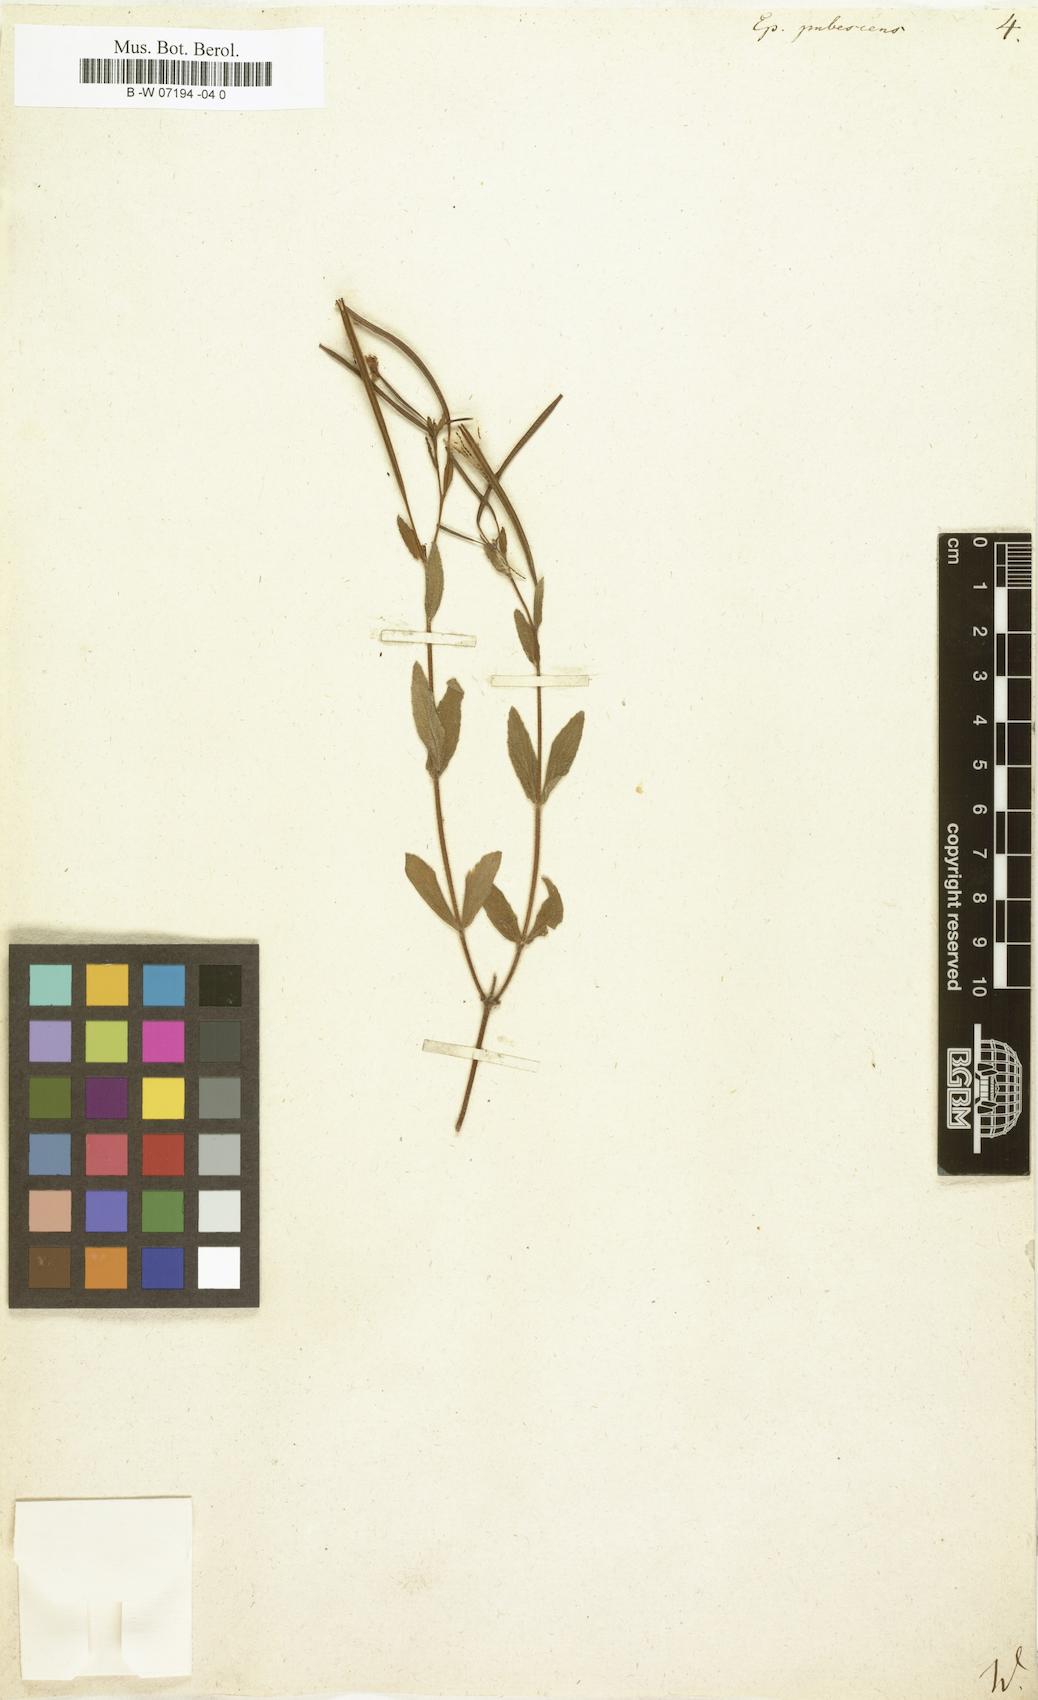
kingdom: Plantae
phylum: Tracheophyta
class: Magnoliopsida
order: Myrtales
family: Onagraceae
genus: Epilobium
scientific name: Epilobium
